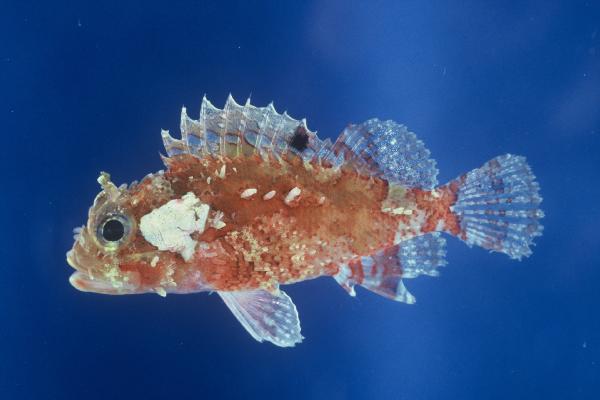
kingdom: Animalia
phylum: Chordata
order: Scorpaeniformes
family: Scorpaenidae
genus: Parascorpaena
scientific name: Parascorpaena mcadamsi
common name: Ocellated scorpionfish
